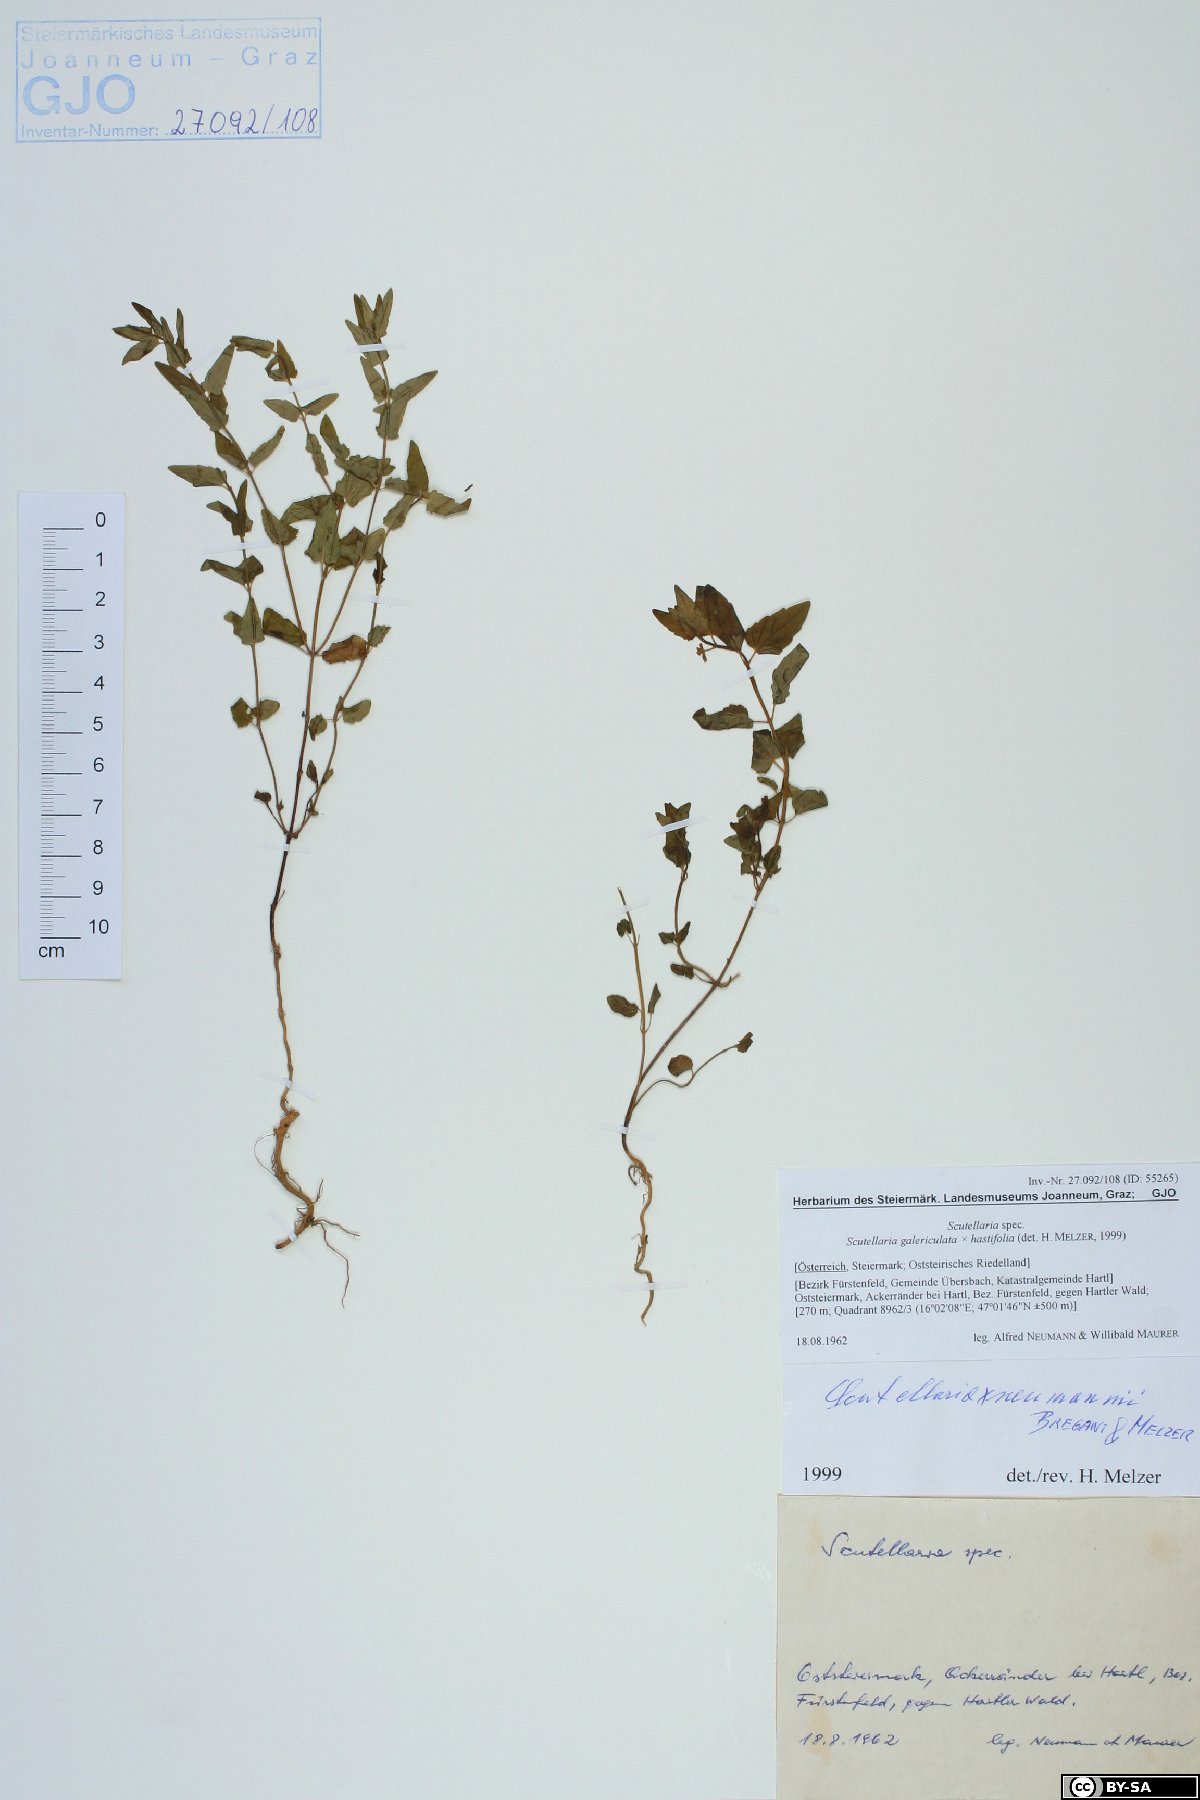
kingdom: Plantae
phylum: Tracheophyta
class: Magnoliopsida
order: Lamiales
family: Lamiaceae
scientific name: Lamiaceae
